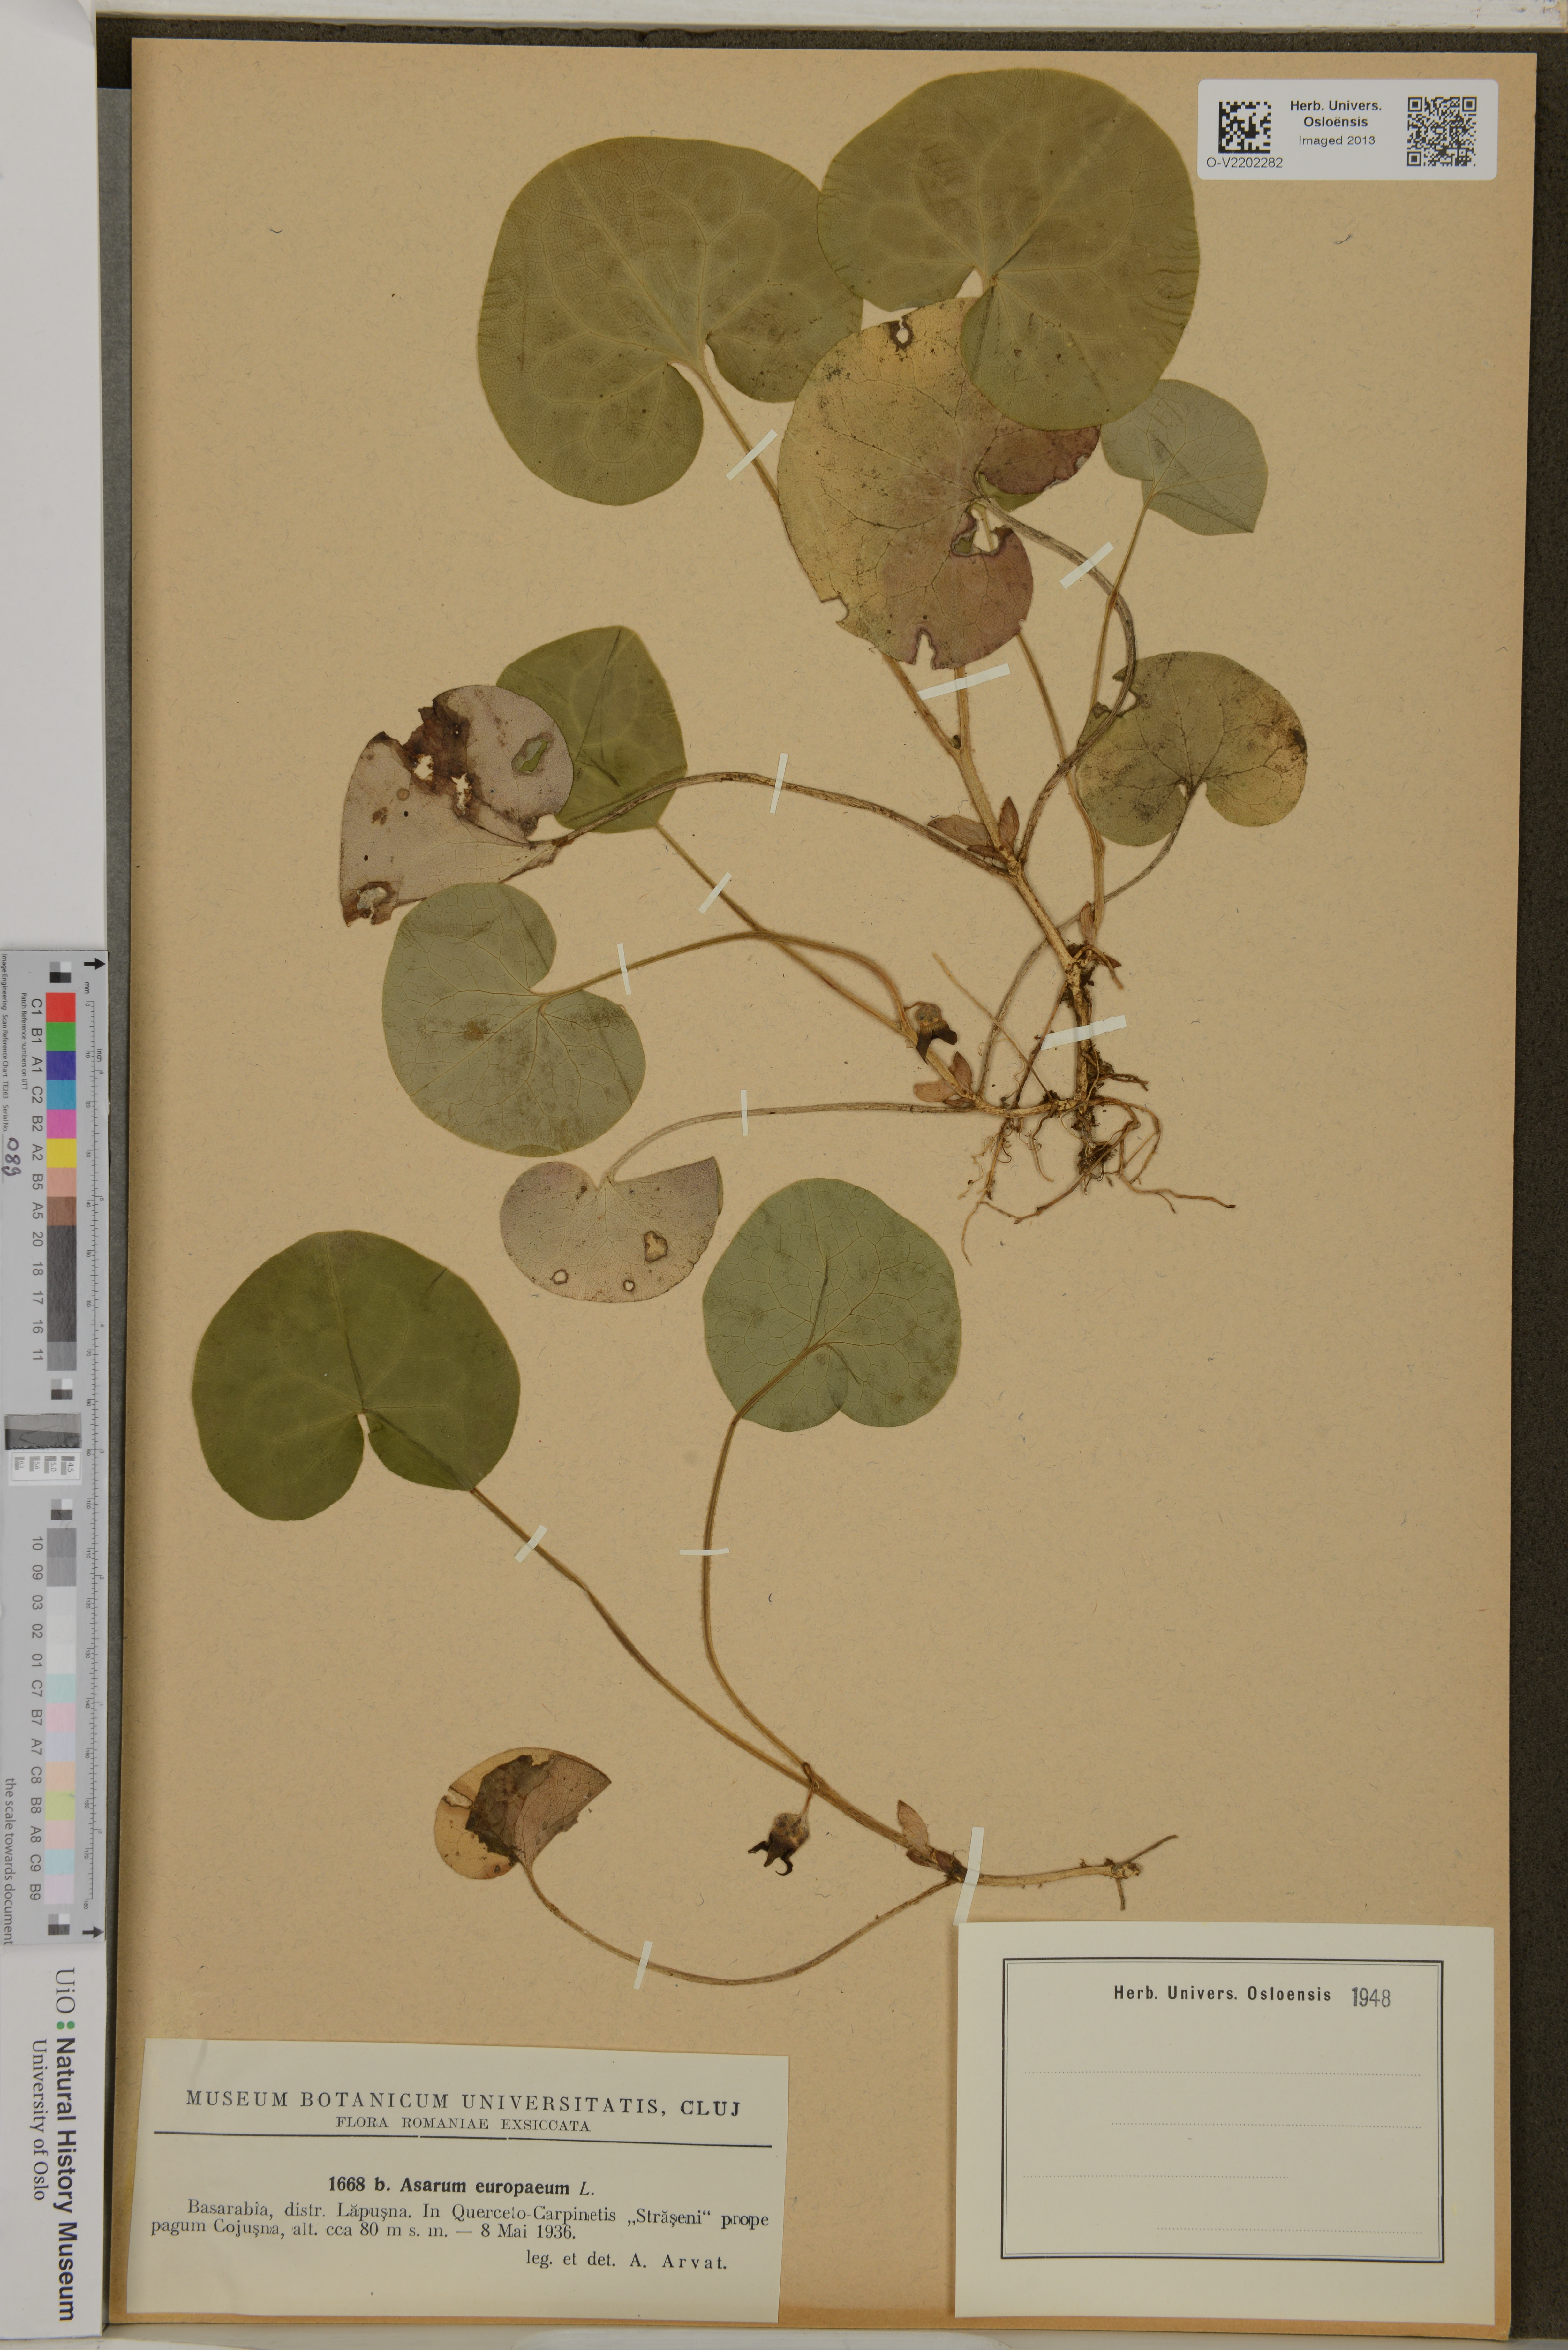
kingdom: Plantae
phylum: Tracheophyta
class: Magnoliopsida
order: Piperales
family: Aristolochiaceae
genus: Asarum
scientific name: Asarum europaeum
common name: Asarabacca
